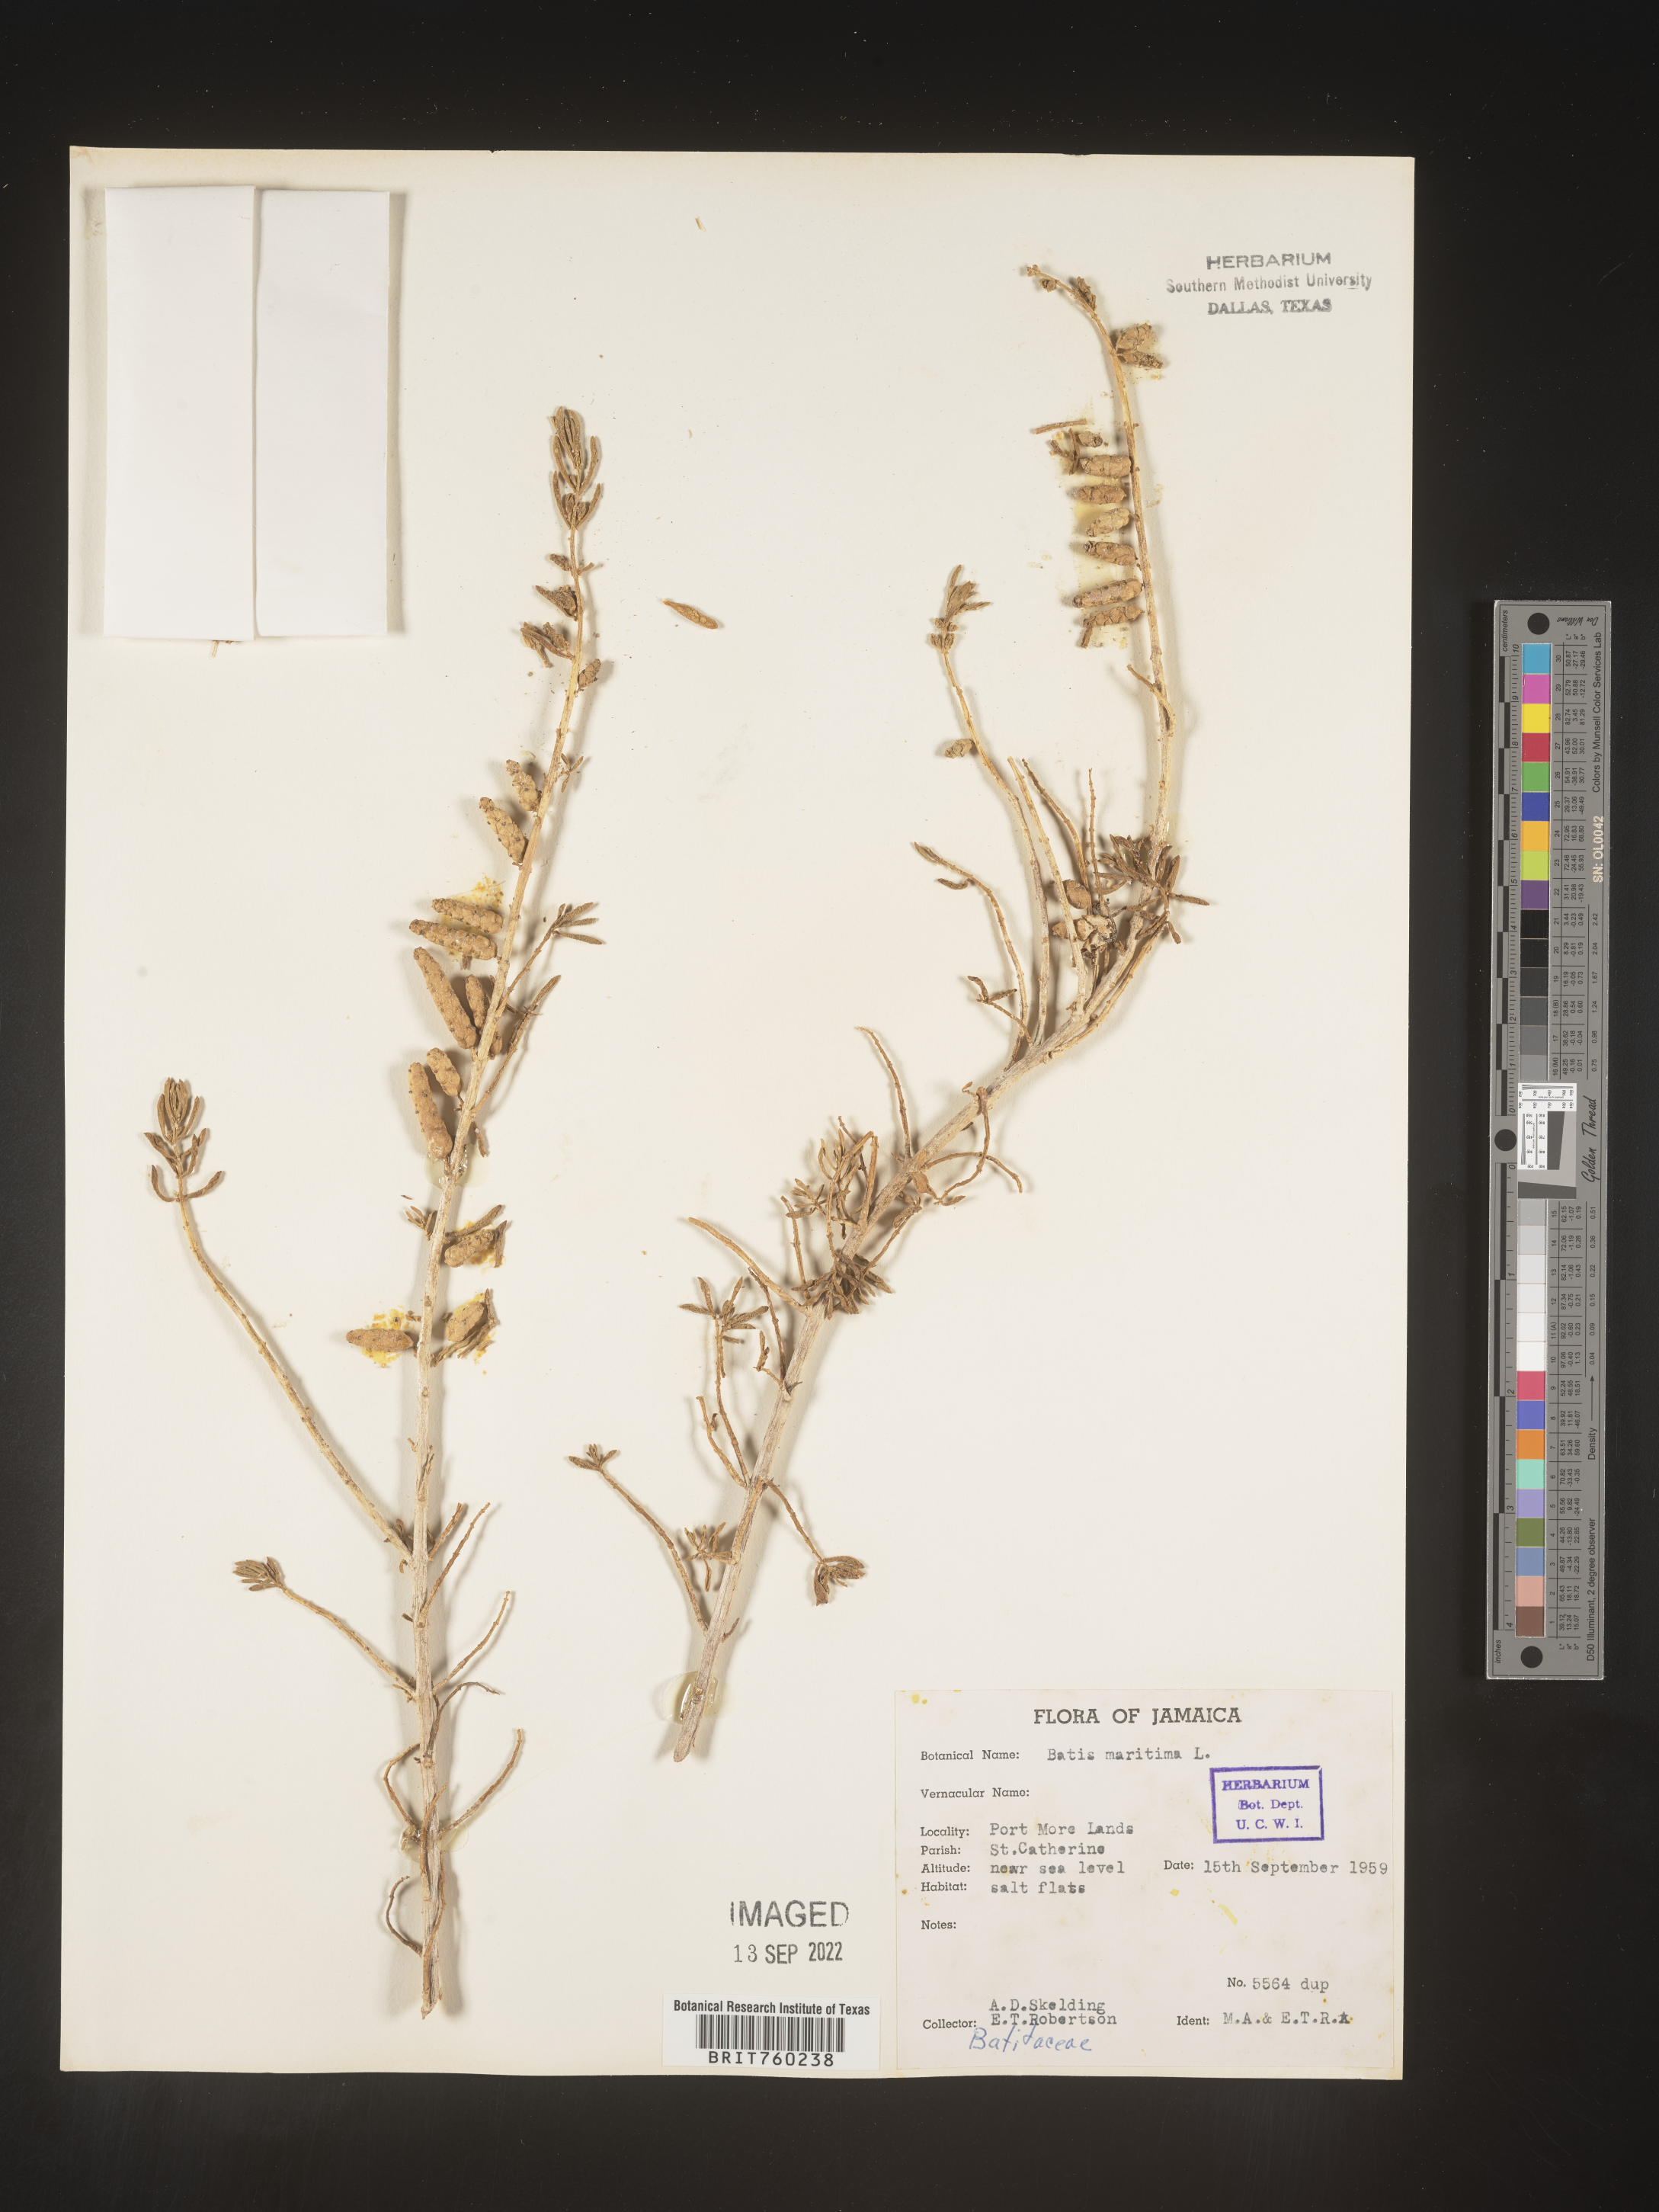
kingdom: Plantae
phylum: Tracheophyta
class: Magnoliopsida
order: Brassicales
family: Bataceae
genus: Batis
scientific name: Batis maritima
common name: Turtleweed
